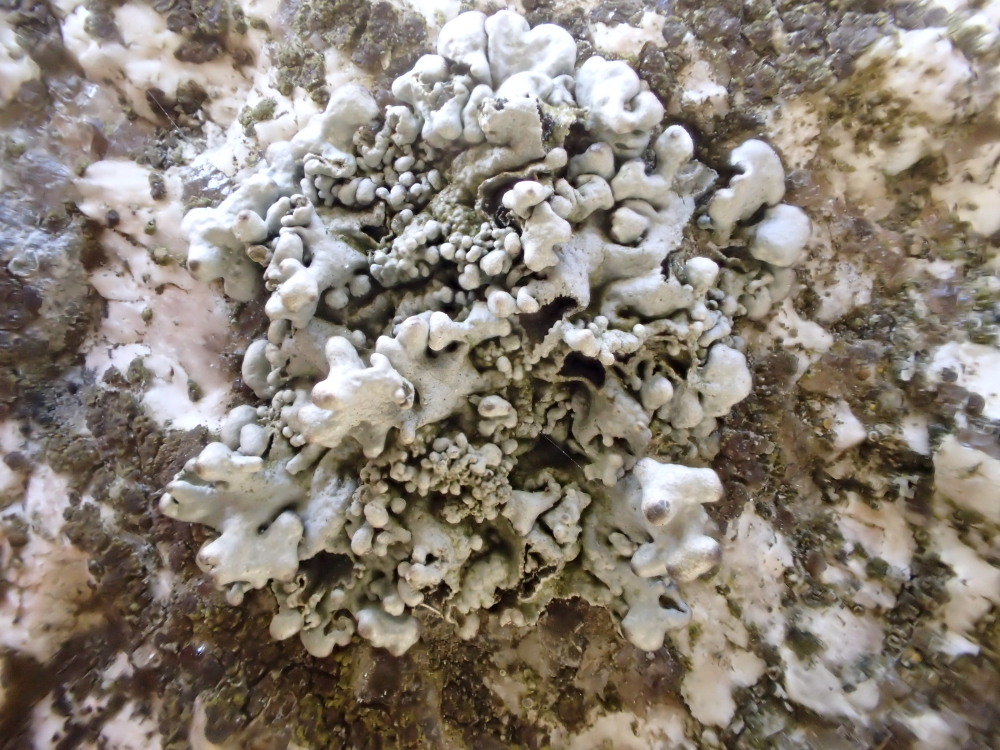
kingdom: Fungi
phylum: Ascomycota
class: Lecanoromycetes
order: Lecanorales
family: Parmeliaceae
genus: Hypogymnia
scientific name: Hypogymnia tubulosa
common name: finger-kvistlav
